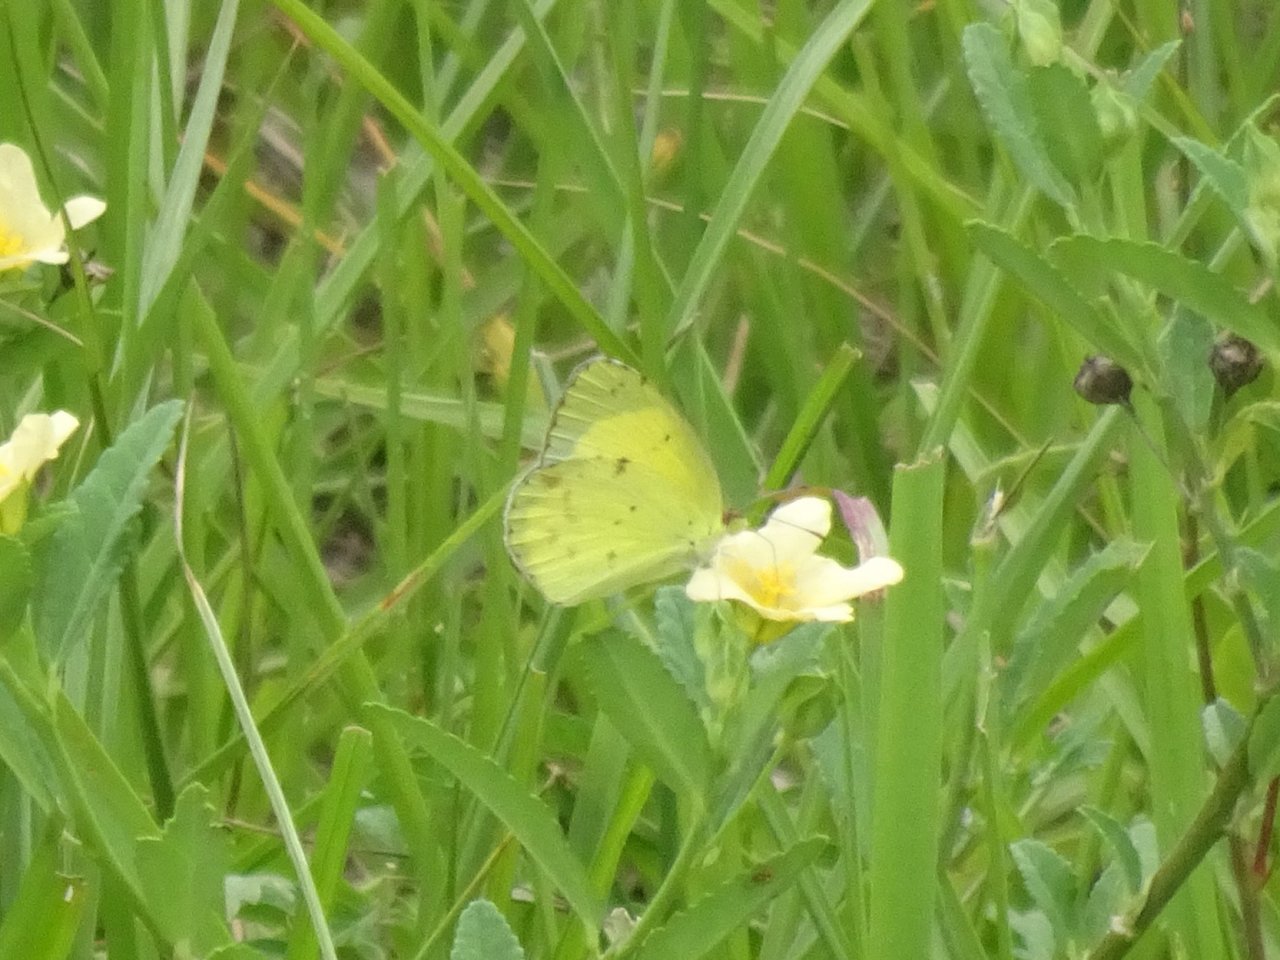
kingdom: Animalia
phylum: Arthropoda
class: Insecta
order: Lepidoptera
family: Pieridae
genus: Pyrisitia
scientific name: Pyrisitia lisa
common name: Little Yellow
